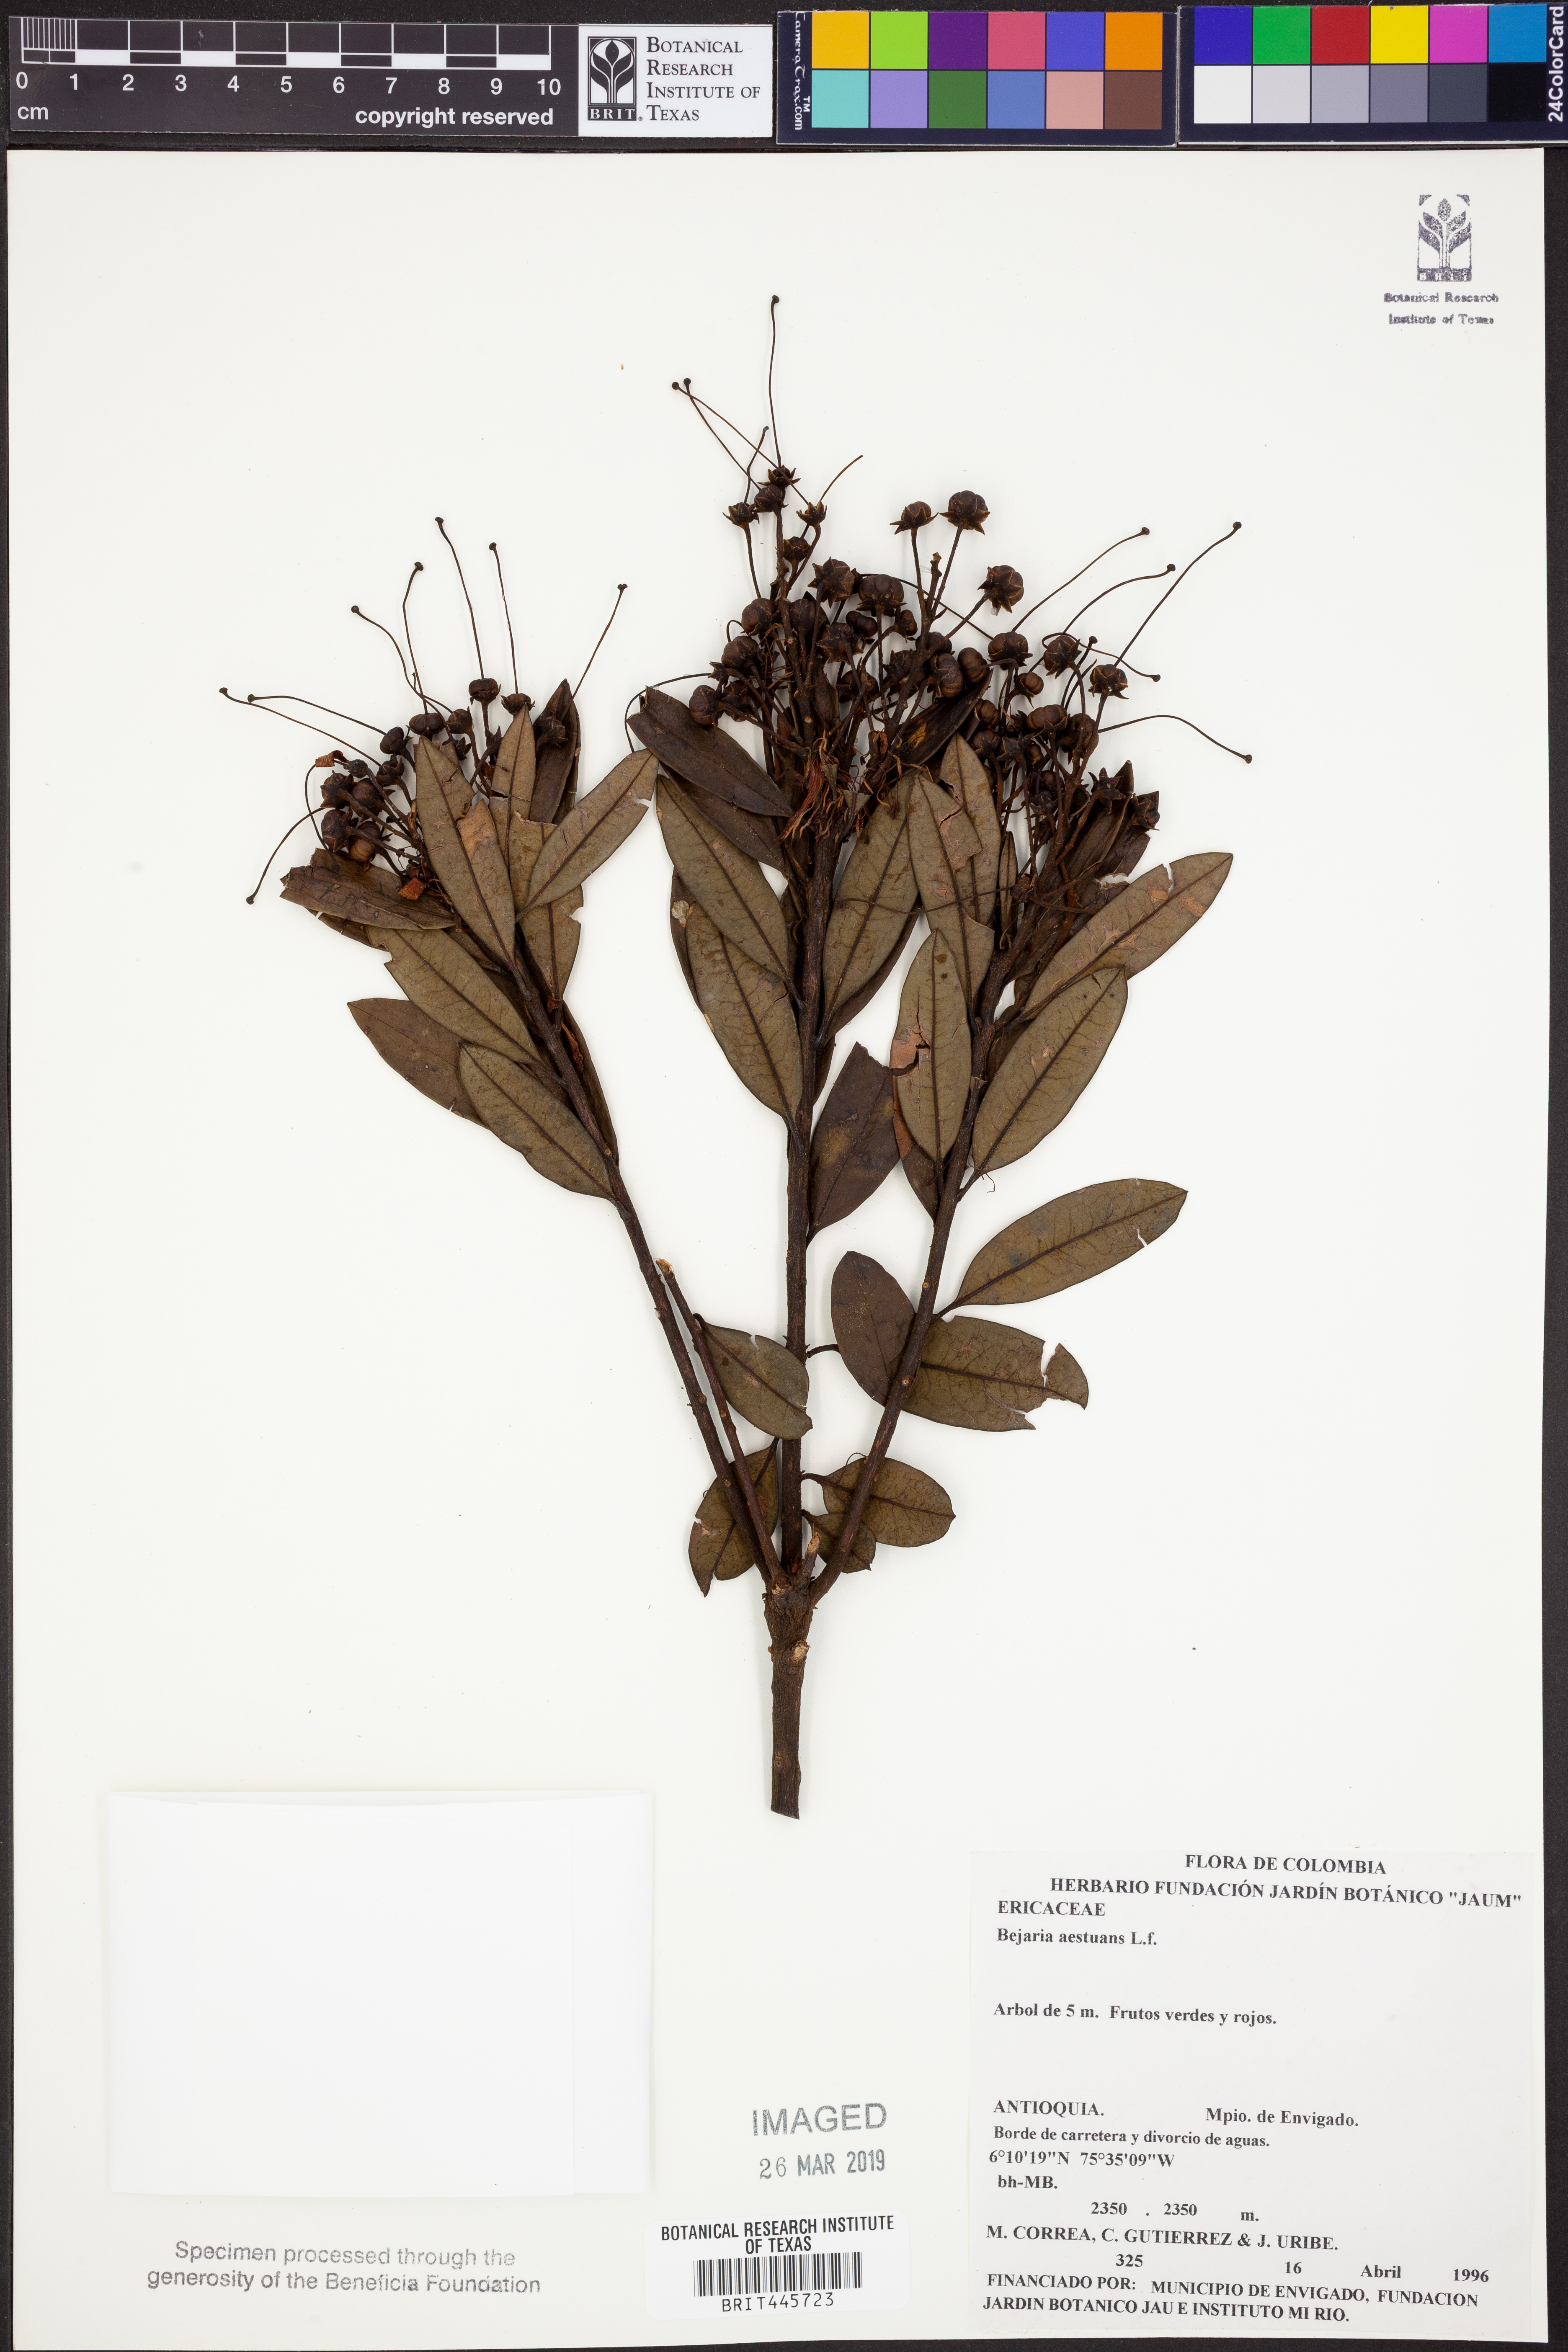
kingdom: Plantae
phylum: Tracheophyta
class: Magnoliopsida
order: Ericales
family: Ericaceae
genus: Bejaria
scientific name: Bejaria aestuans
